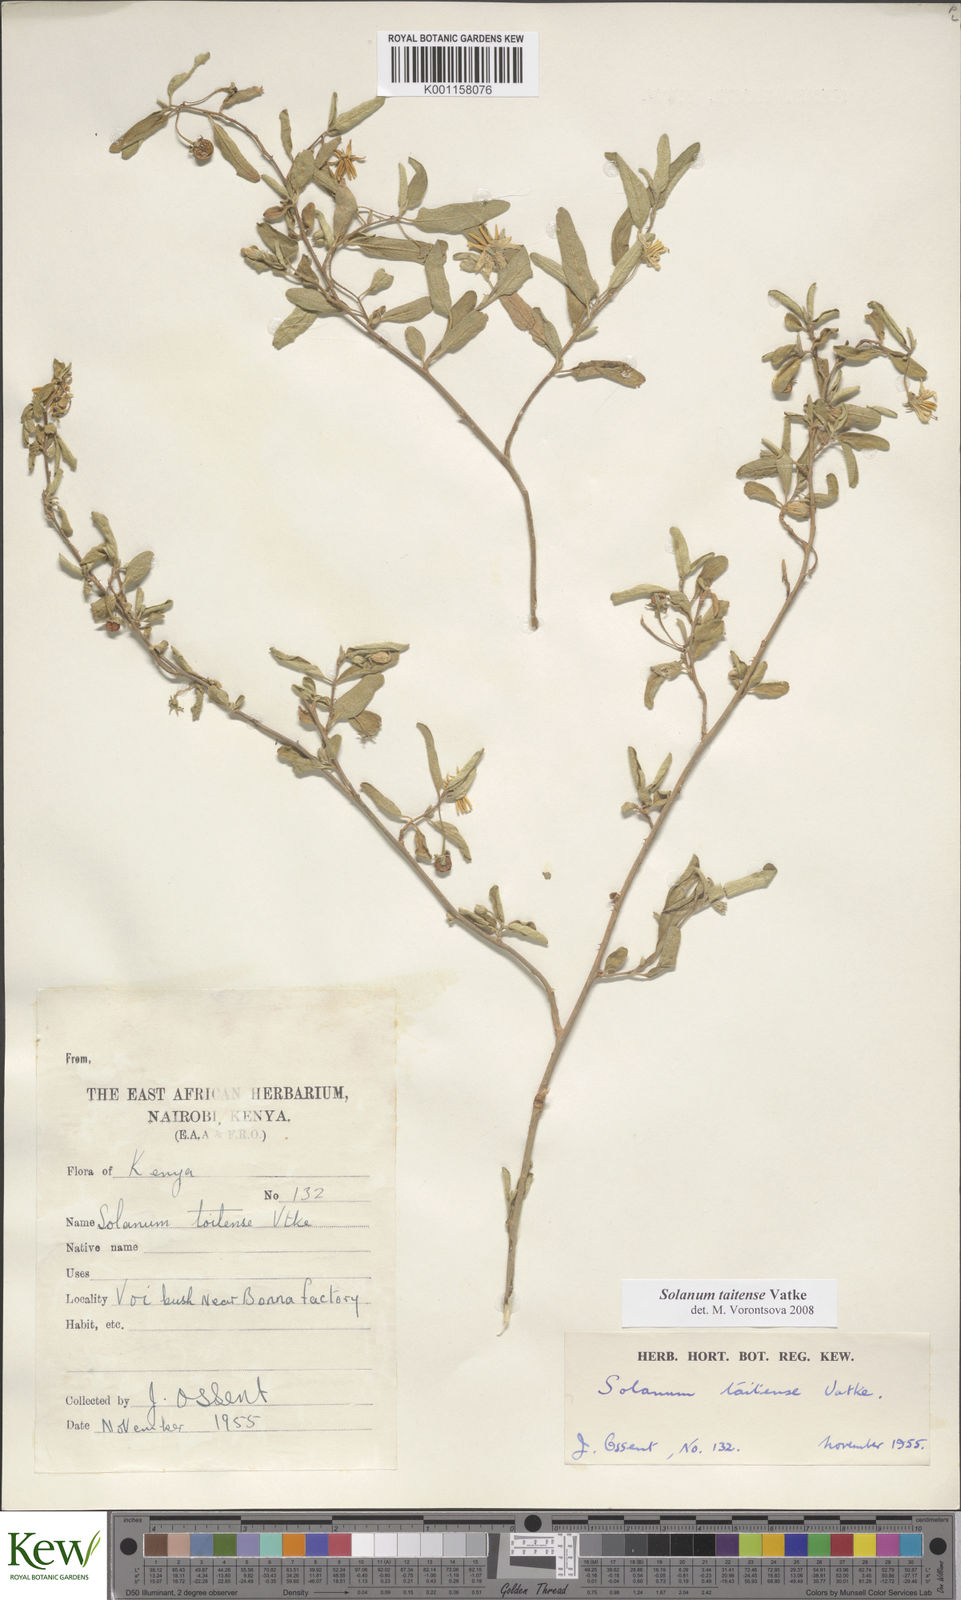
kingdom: Plantae
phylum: Tracheophyta
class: Magnoliopsida
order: Solanales
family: Solanaceae
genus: Solanum
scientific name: Solanum taitense
